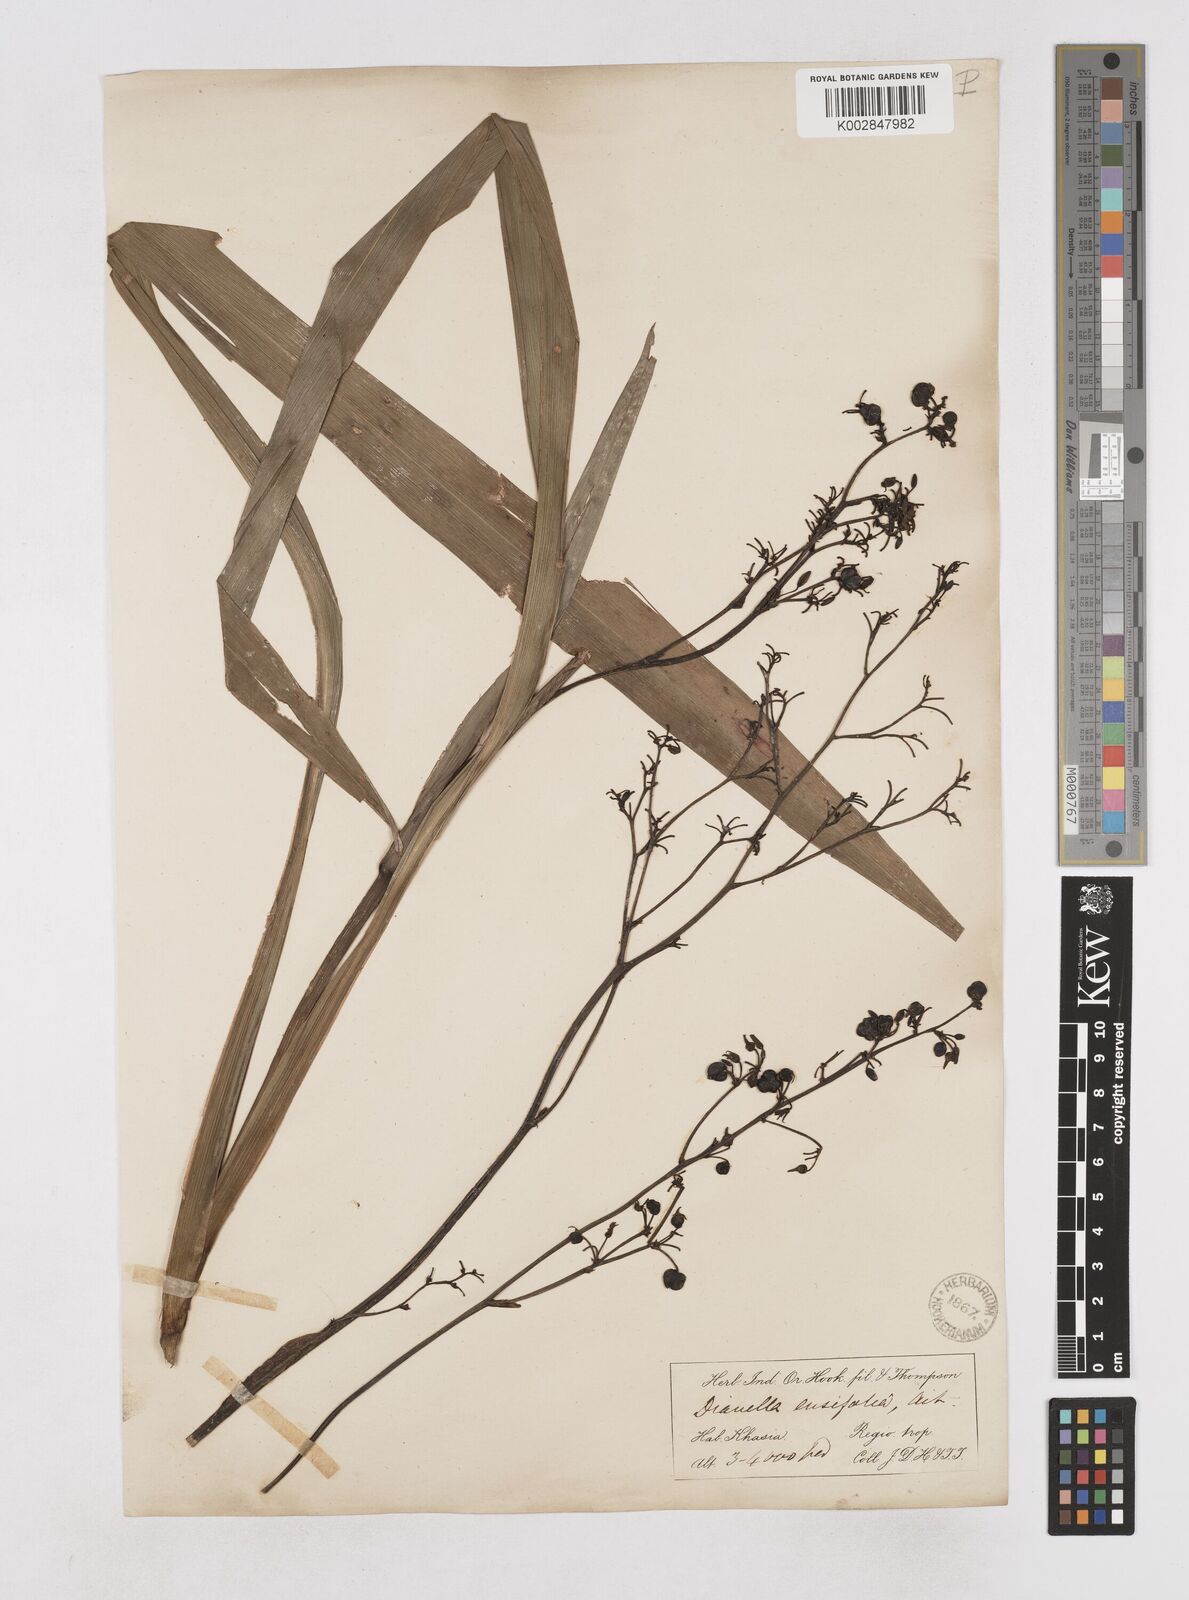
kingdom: Plantae
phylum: Tracheophyta
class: Liliopsida
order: Asparagales
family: Asphodelaceae
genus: Dianella
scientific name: Dianella ensifolia
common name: New zealand lilyplant
